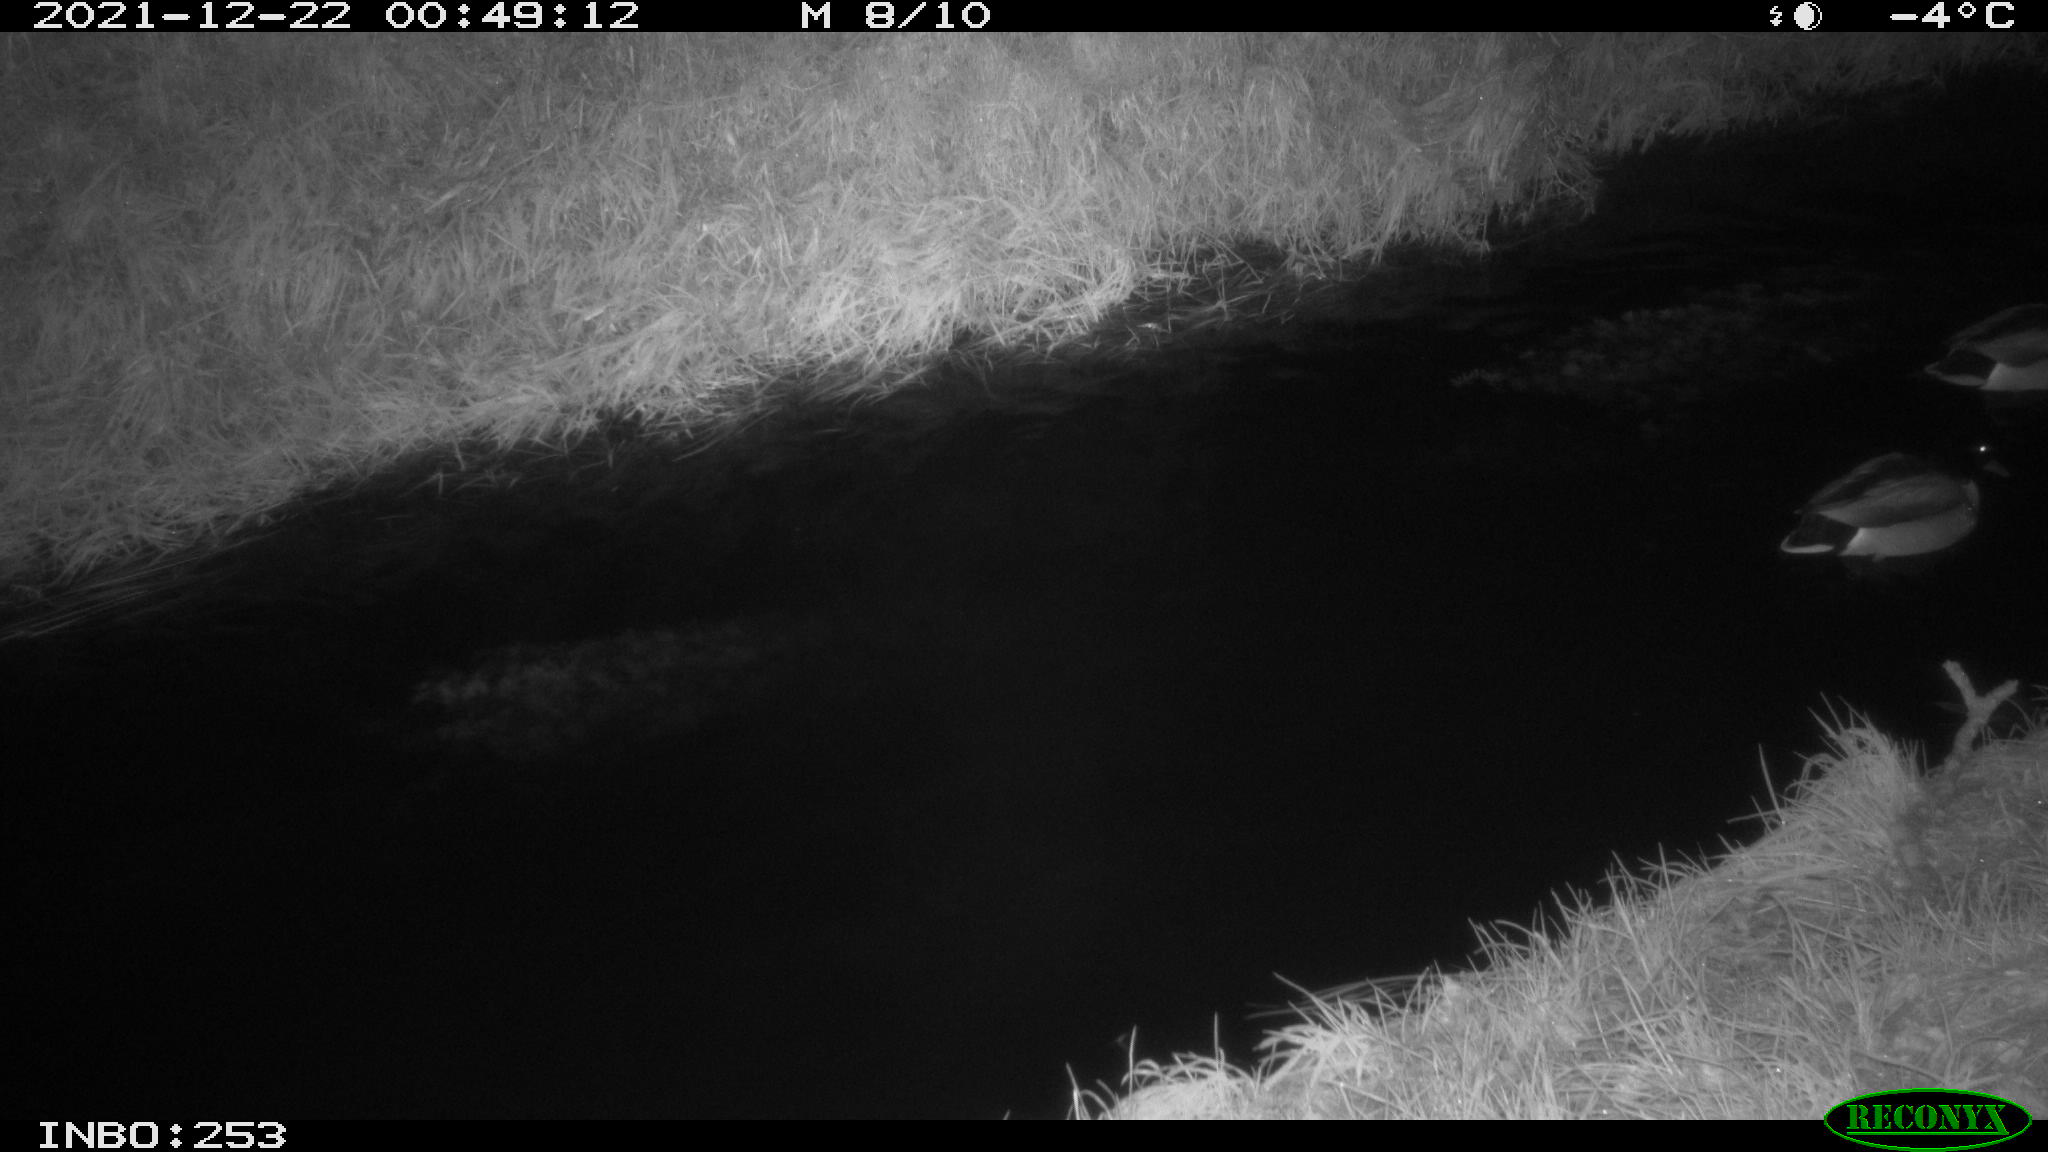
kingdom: Animalia
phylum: Chordata
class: Aves
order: Anseriformes
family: Anatidae
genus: Anas
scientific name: Anas
